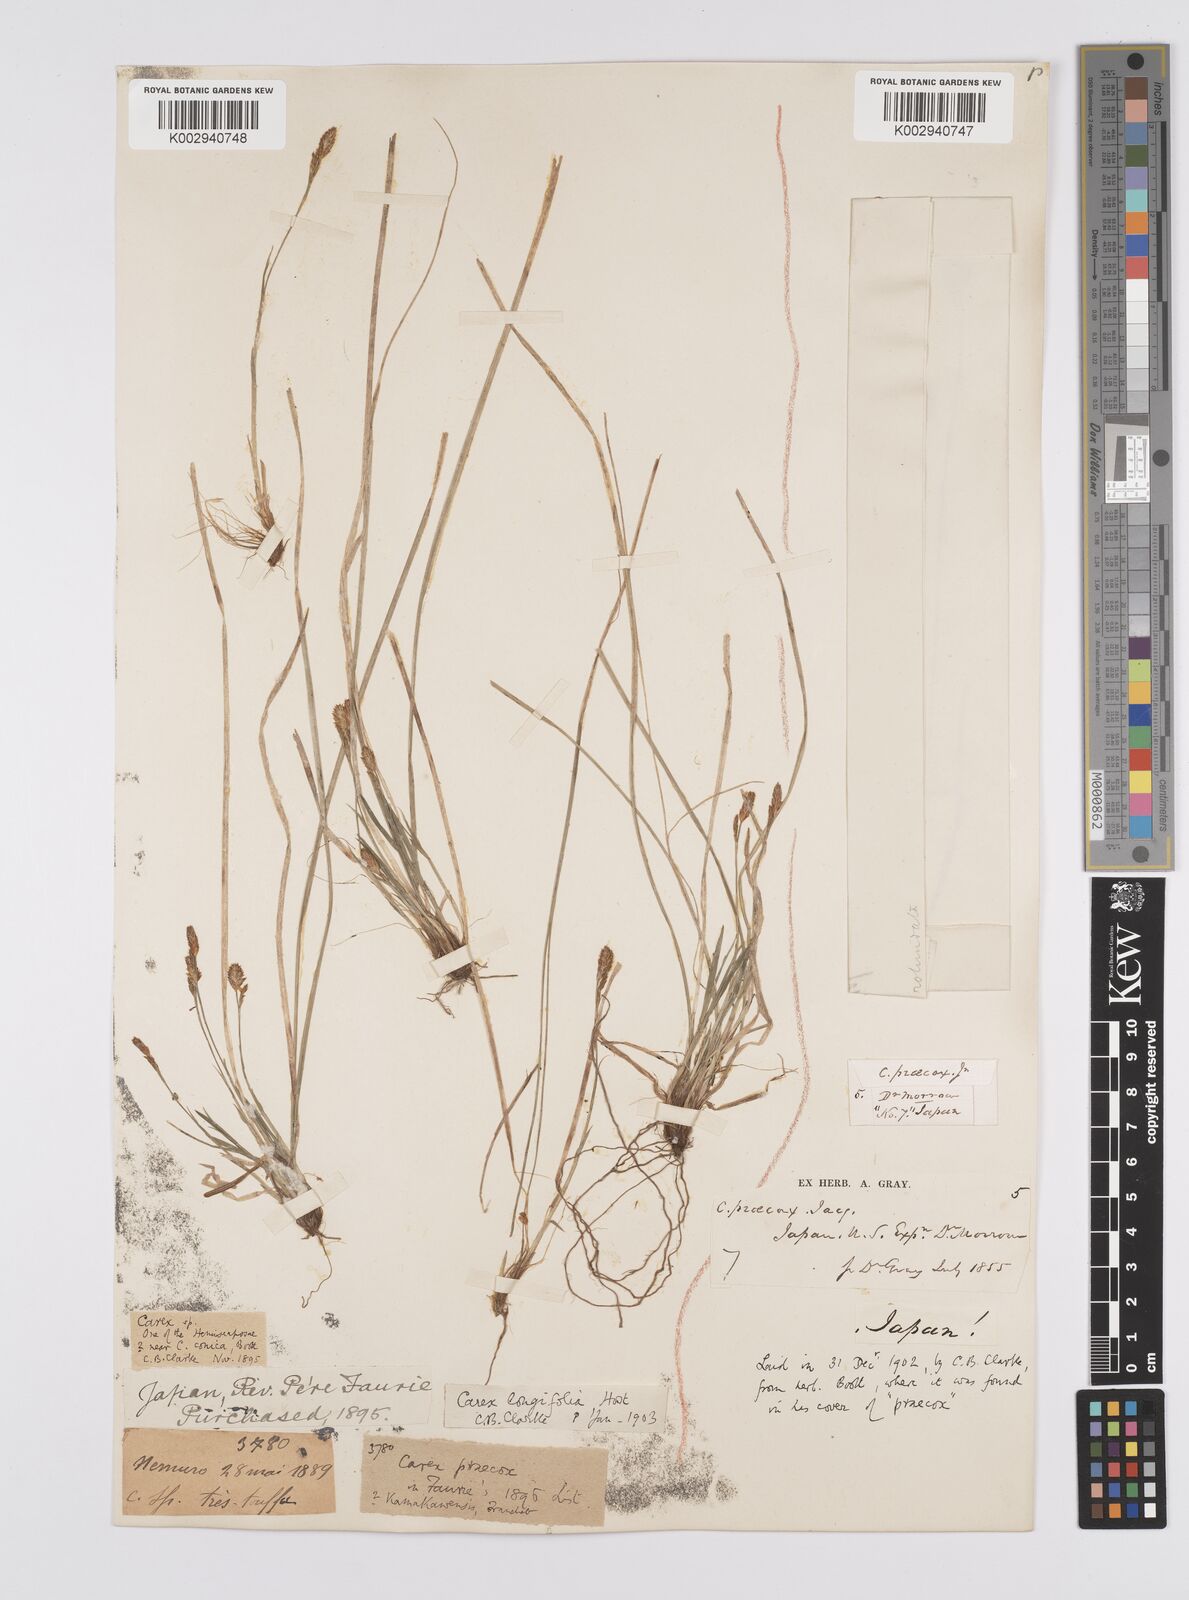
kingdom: Plantae
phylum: Tracheophyta
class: Liliopsida
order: Poales
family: Cyperaceae
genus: Carex
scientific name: Carex umbrosa
